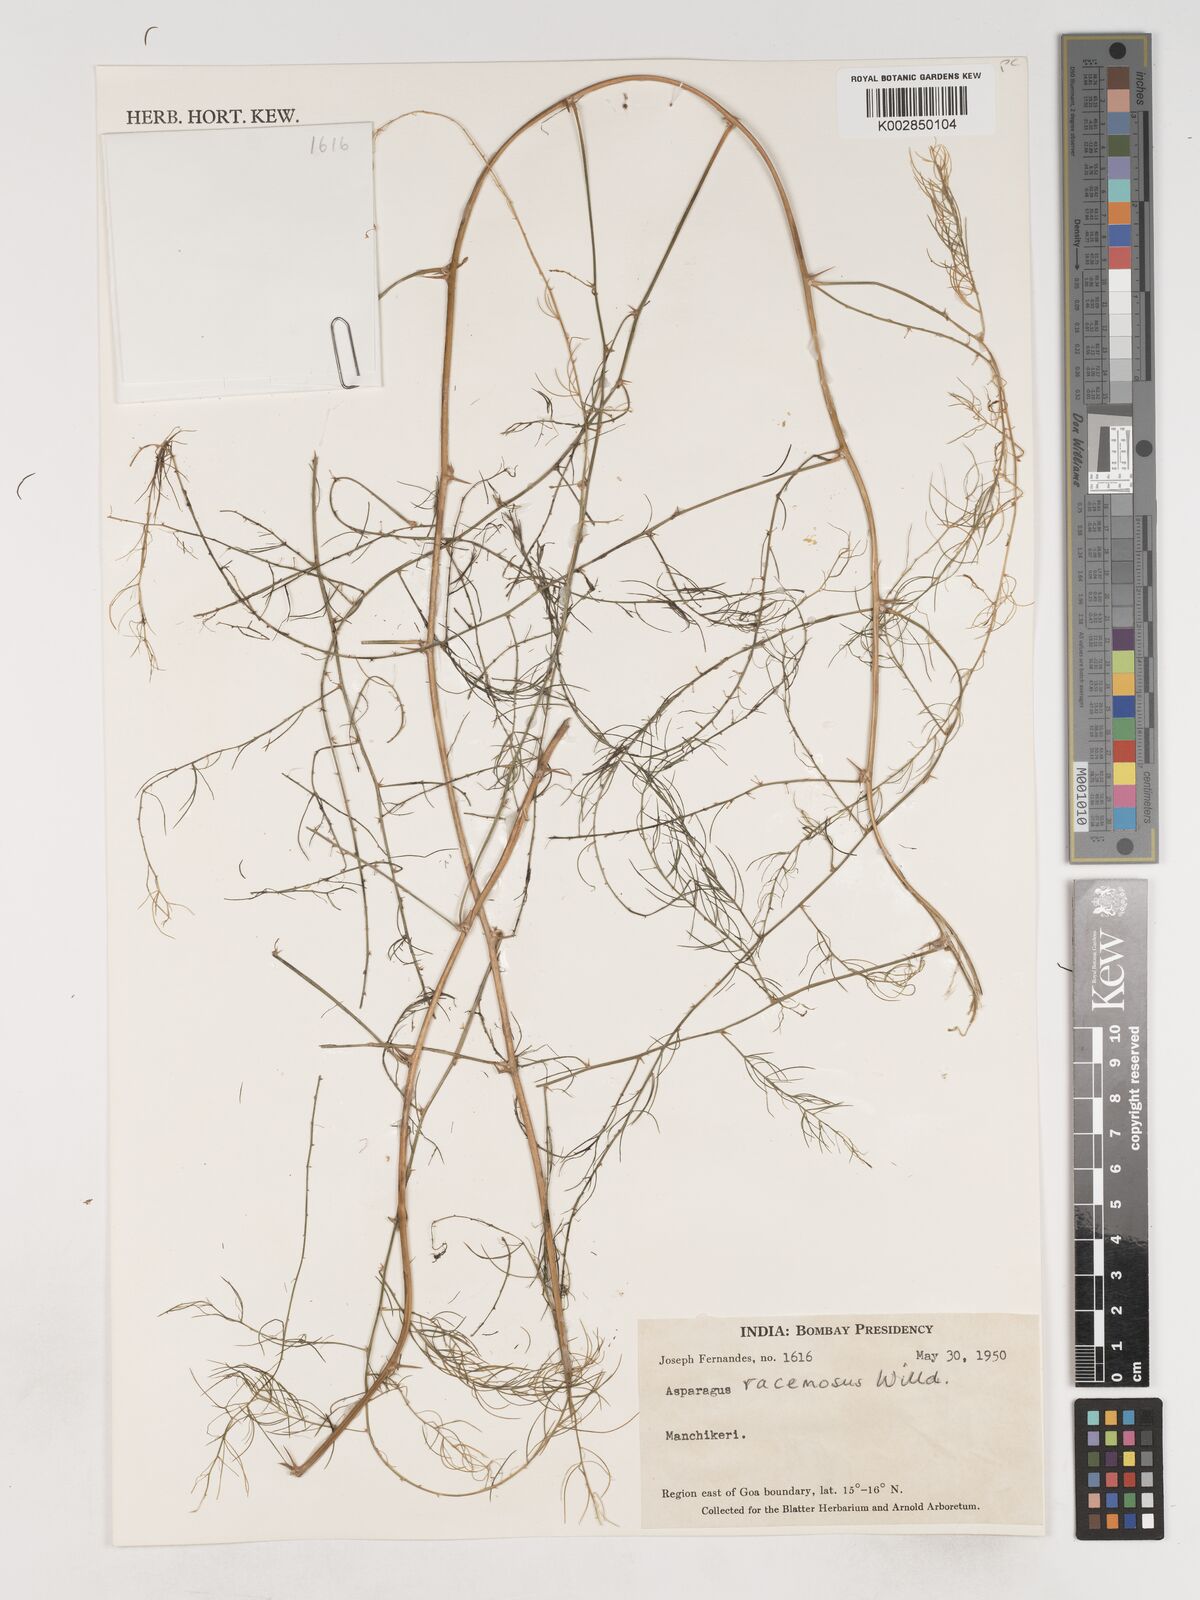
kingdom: Plantae
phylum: Tracheophyta
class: Liliopsida
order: Asparagales
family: Asparagaceae
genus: Asparagus
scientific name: Asparagus racemosus
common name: Asparagus-fern
